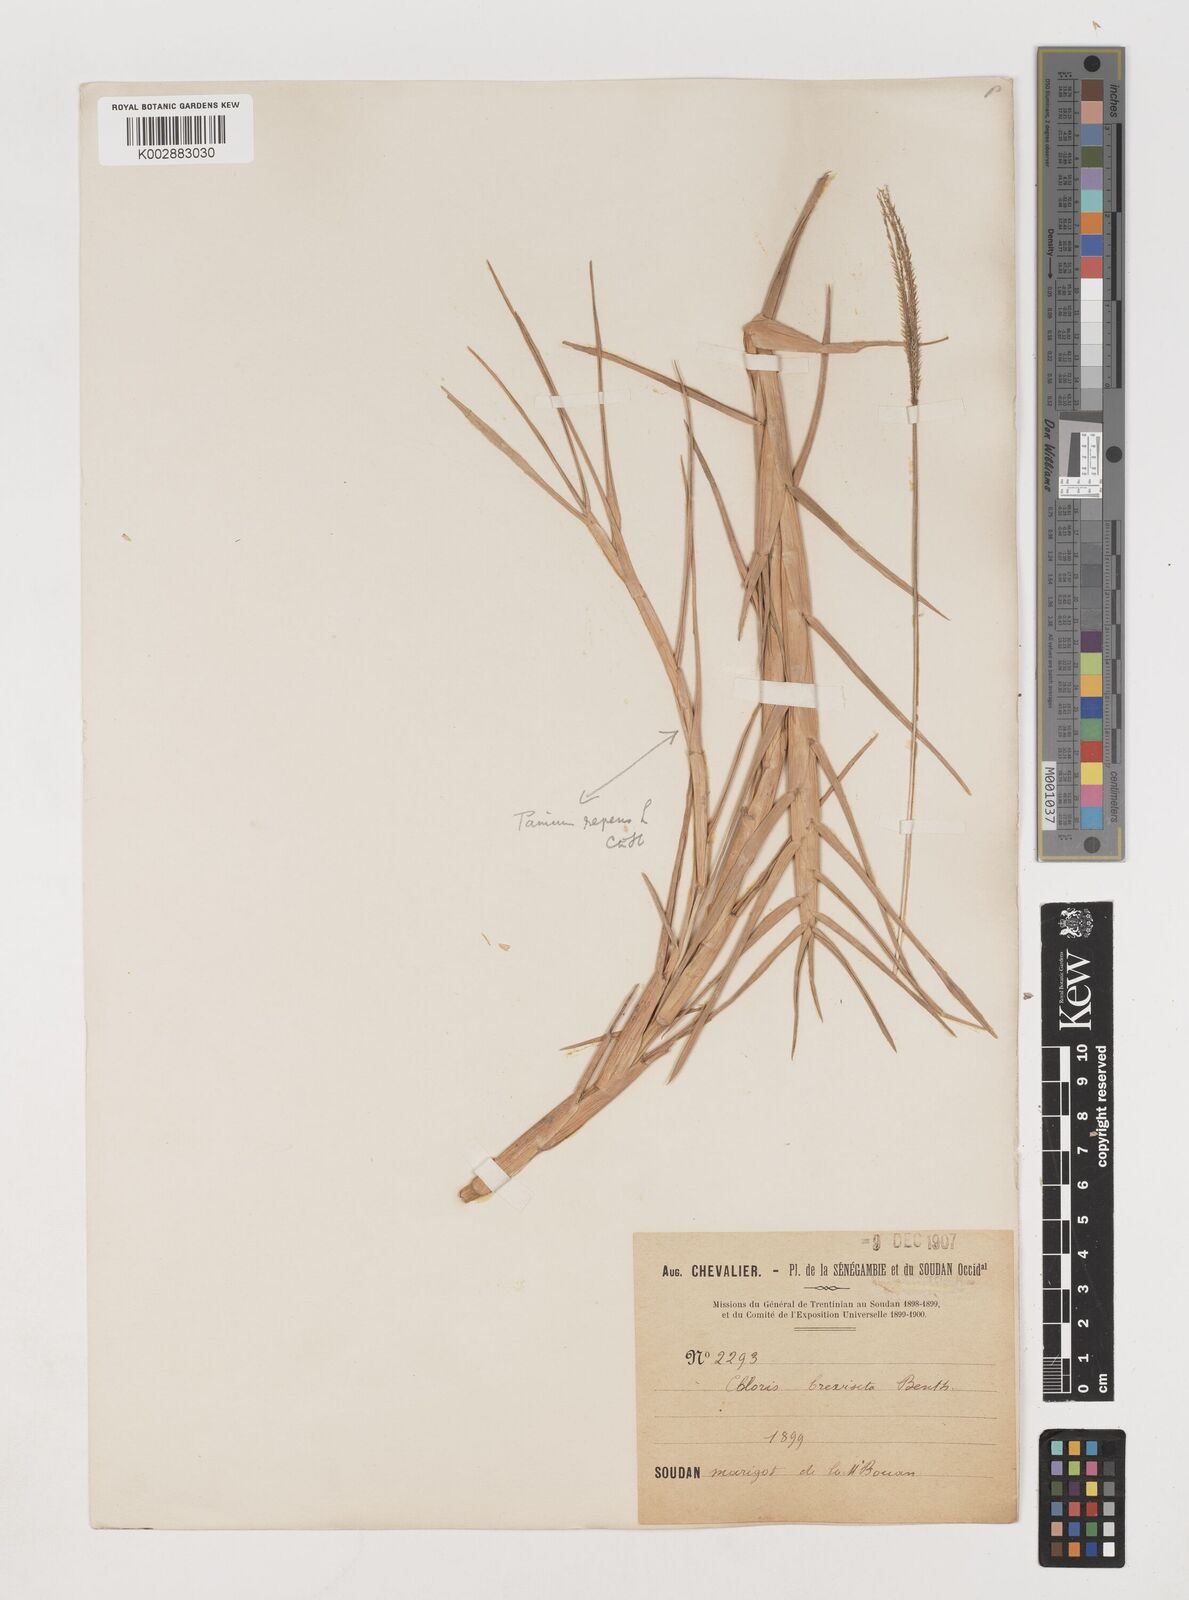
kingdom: Plantae
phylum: Tracheophyta
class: Liliopsida
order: Poales
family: Poaceae
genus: Chloris
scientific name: Chloris pilosa
